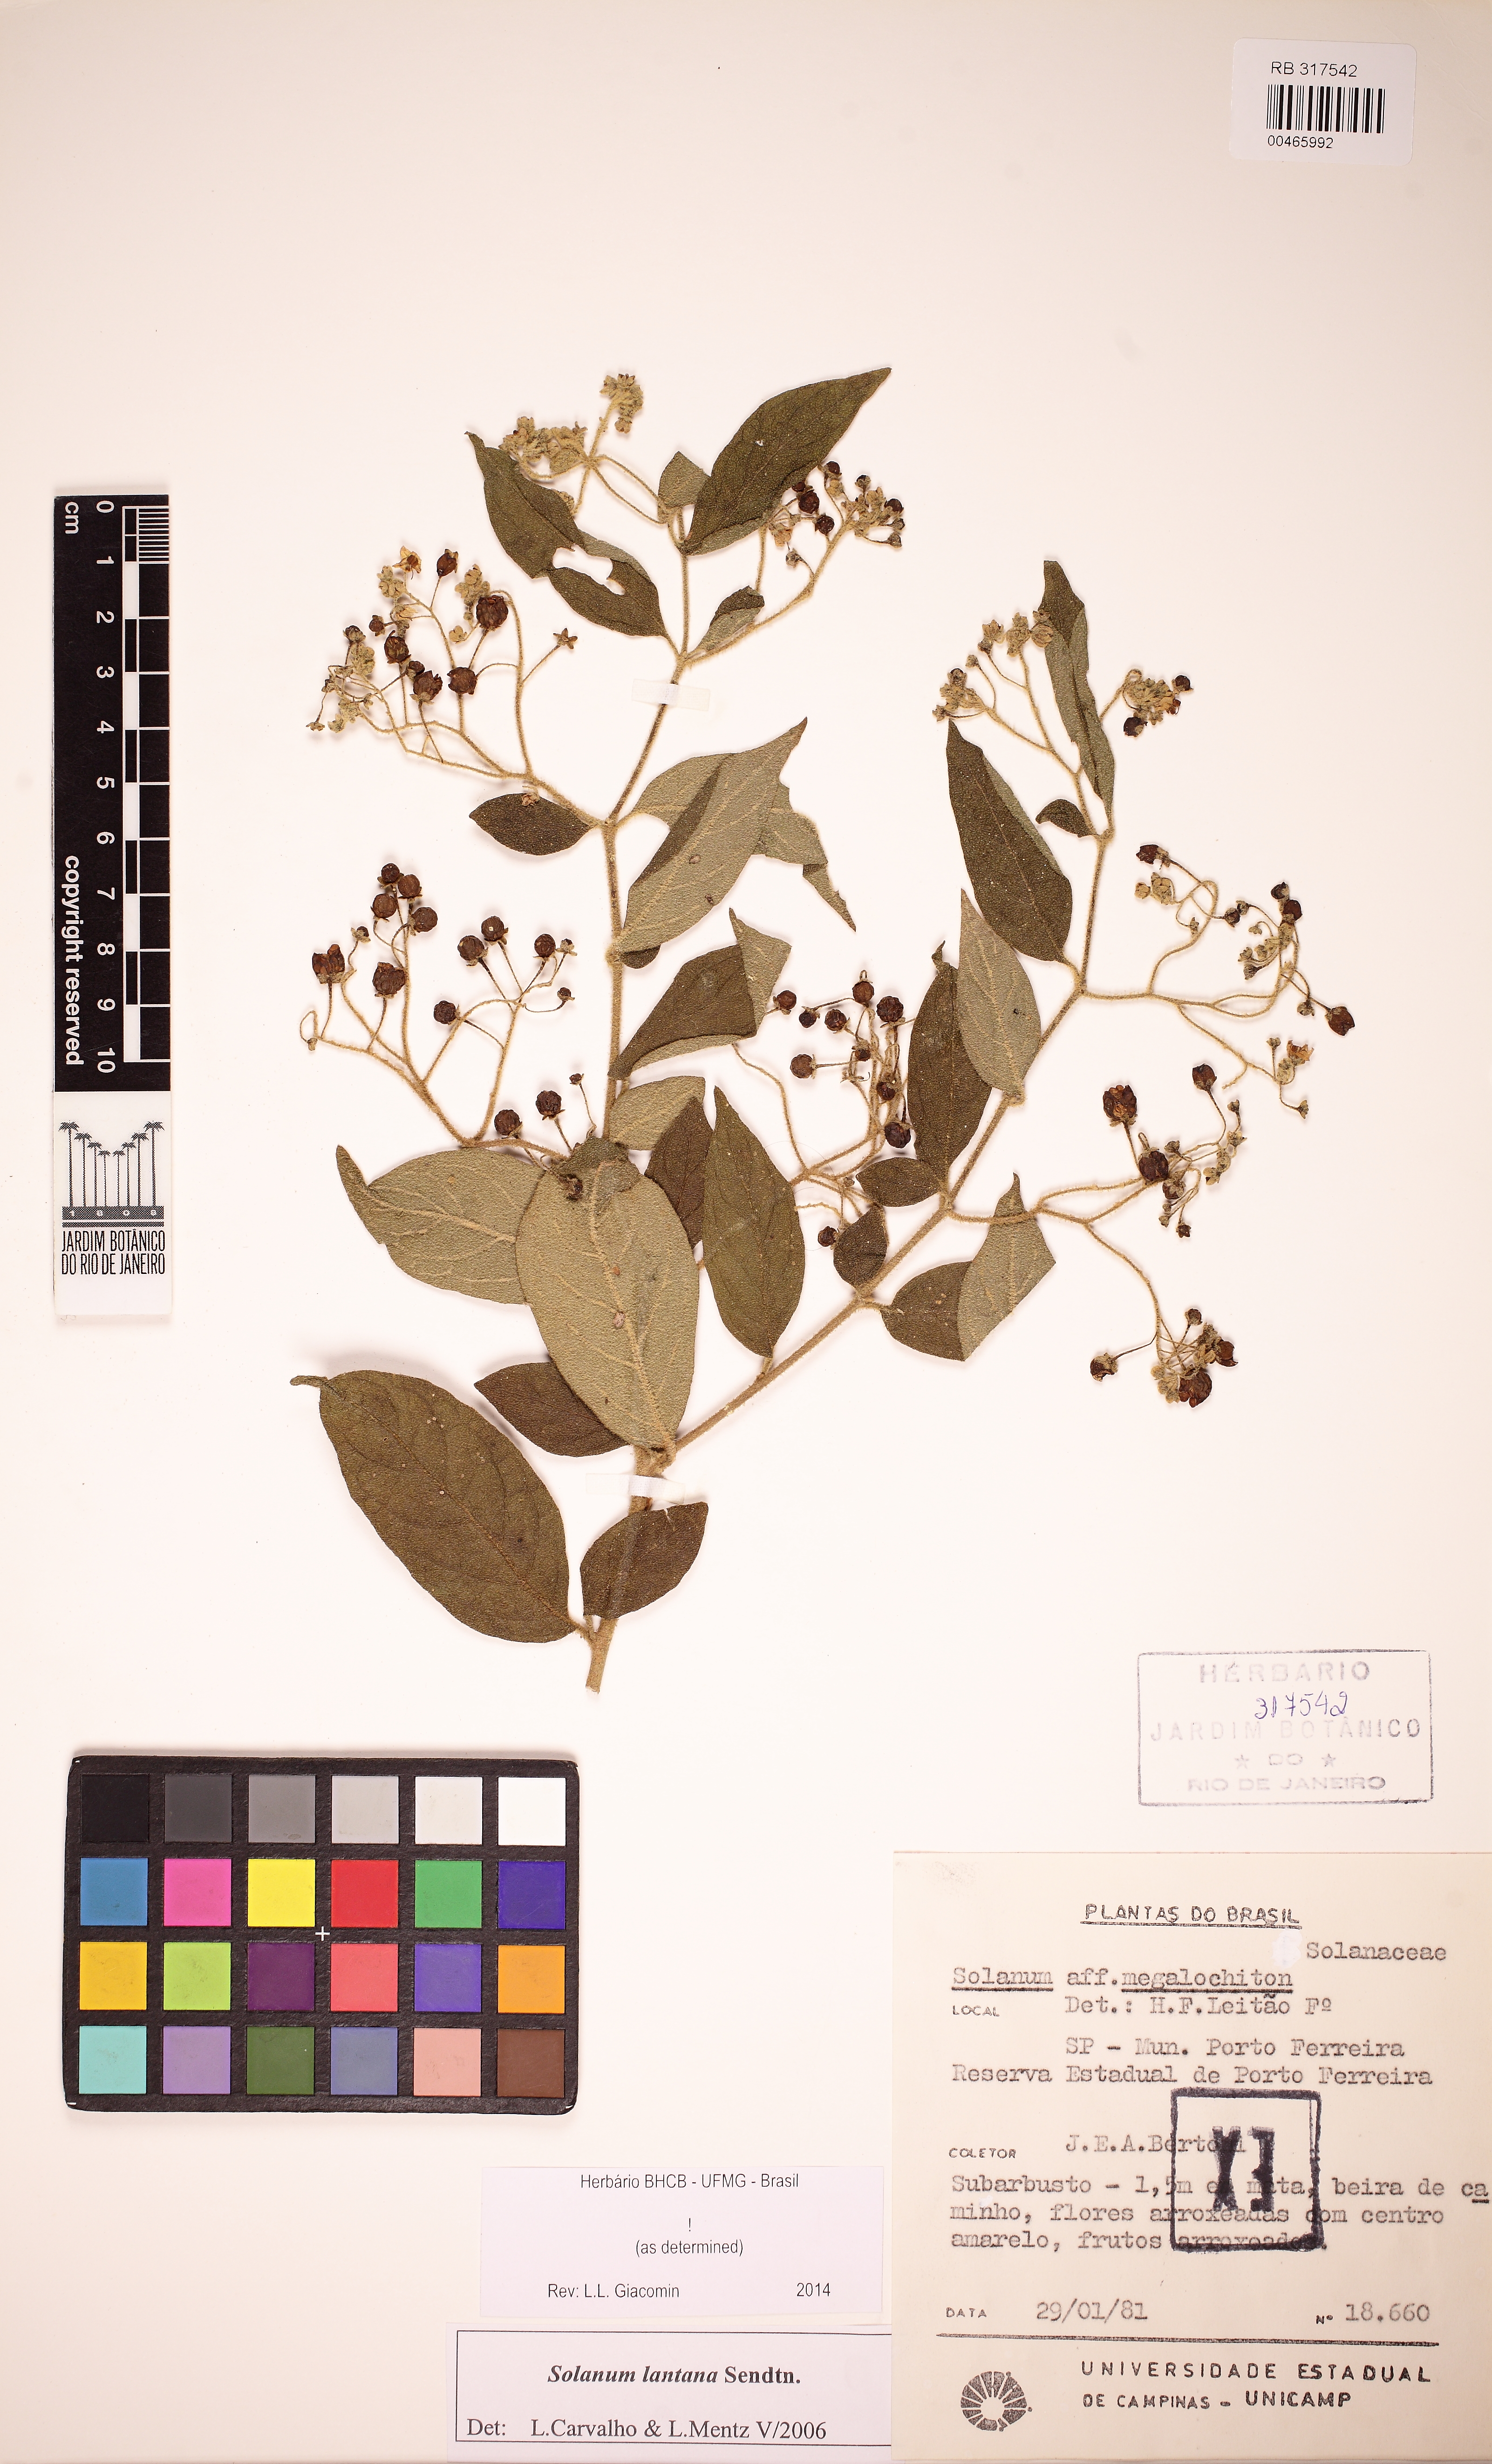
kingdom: Plantae
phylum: Tracheophyta
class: Magnoliopsida
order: Solanales
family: Solanaceae
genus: Solanum
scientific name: Solanum lantana
